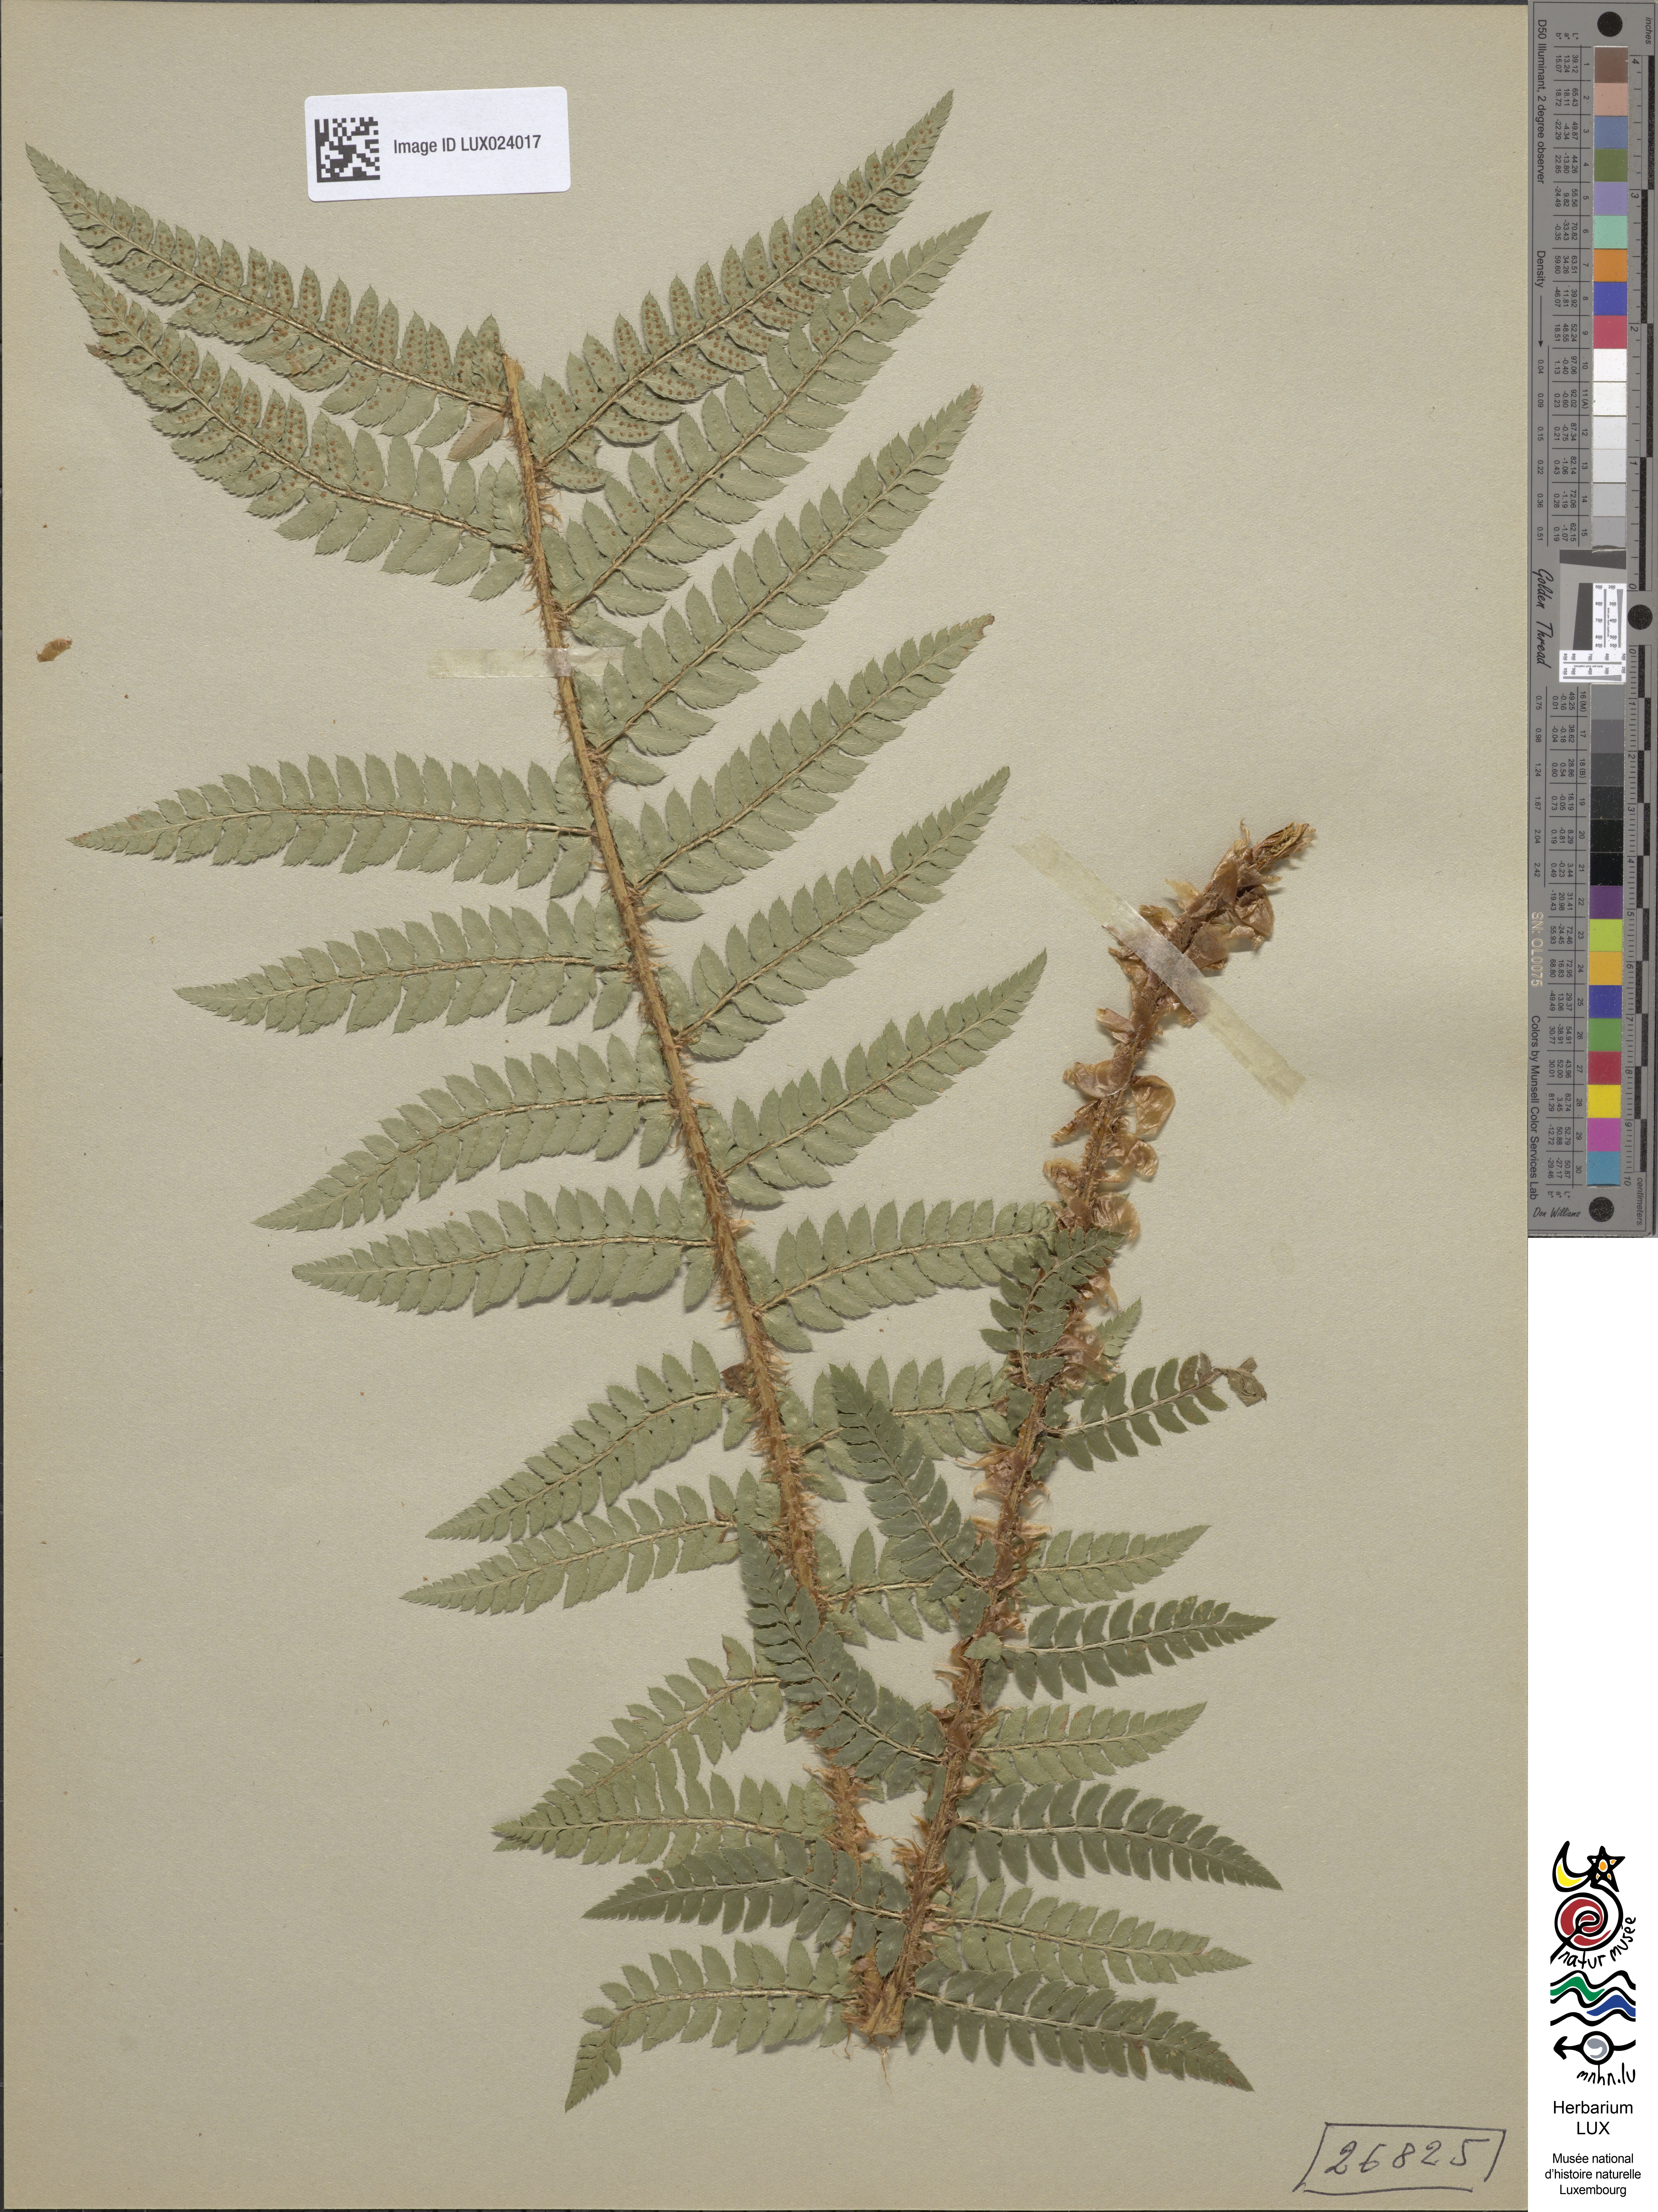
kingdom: Plantae
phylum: Tracheophyta
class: Polypodiopsida
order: Polypodiales
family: Dryopteridaceae
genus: Polystichum
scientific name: Polystichum
